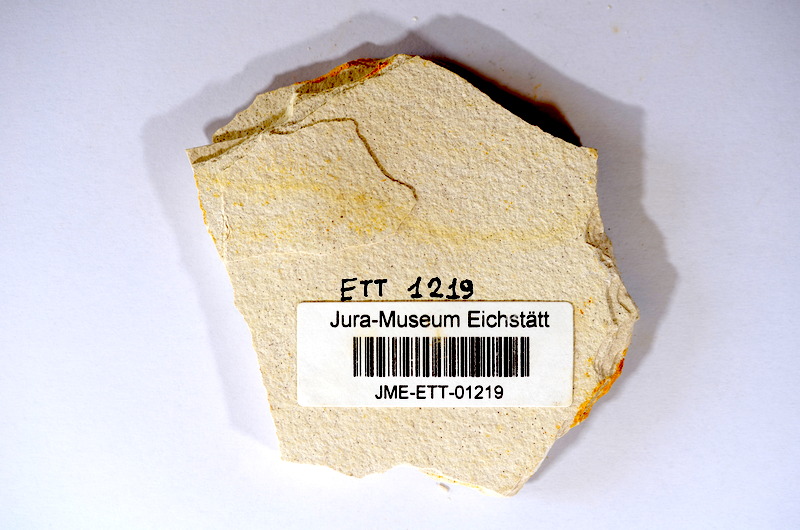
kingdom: Animalia
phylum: Chordata
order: Salmoniformes
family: Orthogonikleithridae
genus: Orthogonikleithrus
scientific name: Orthogonikleithrus hoelli
